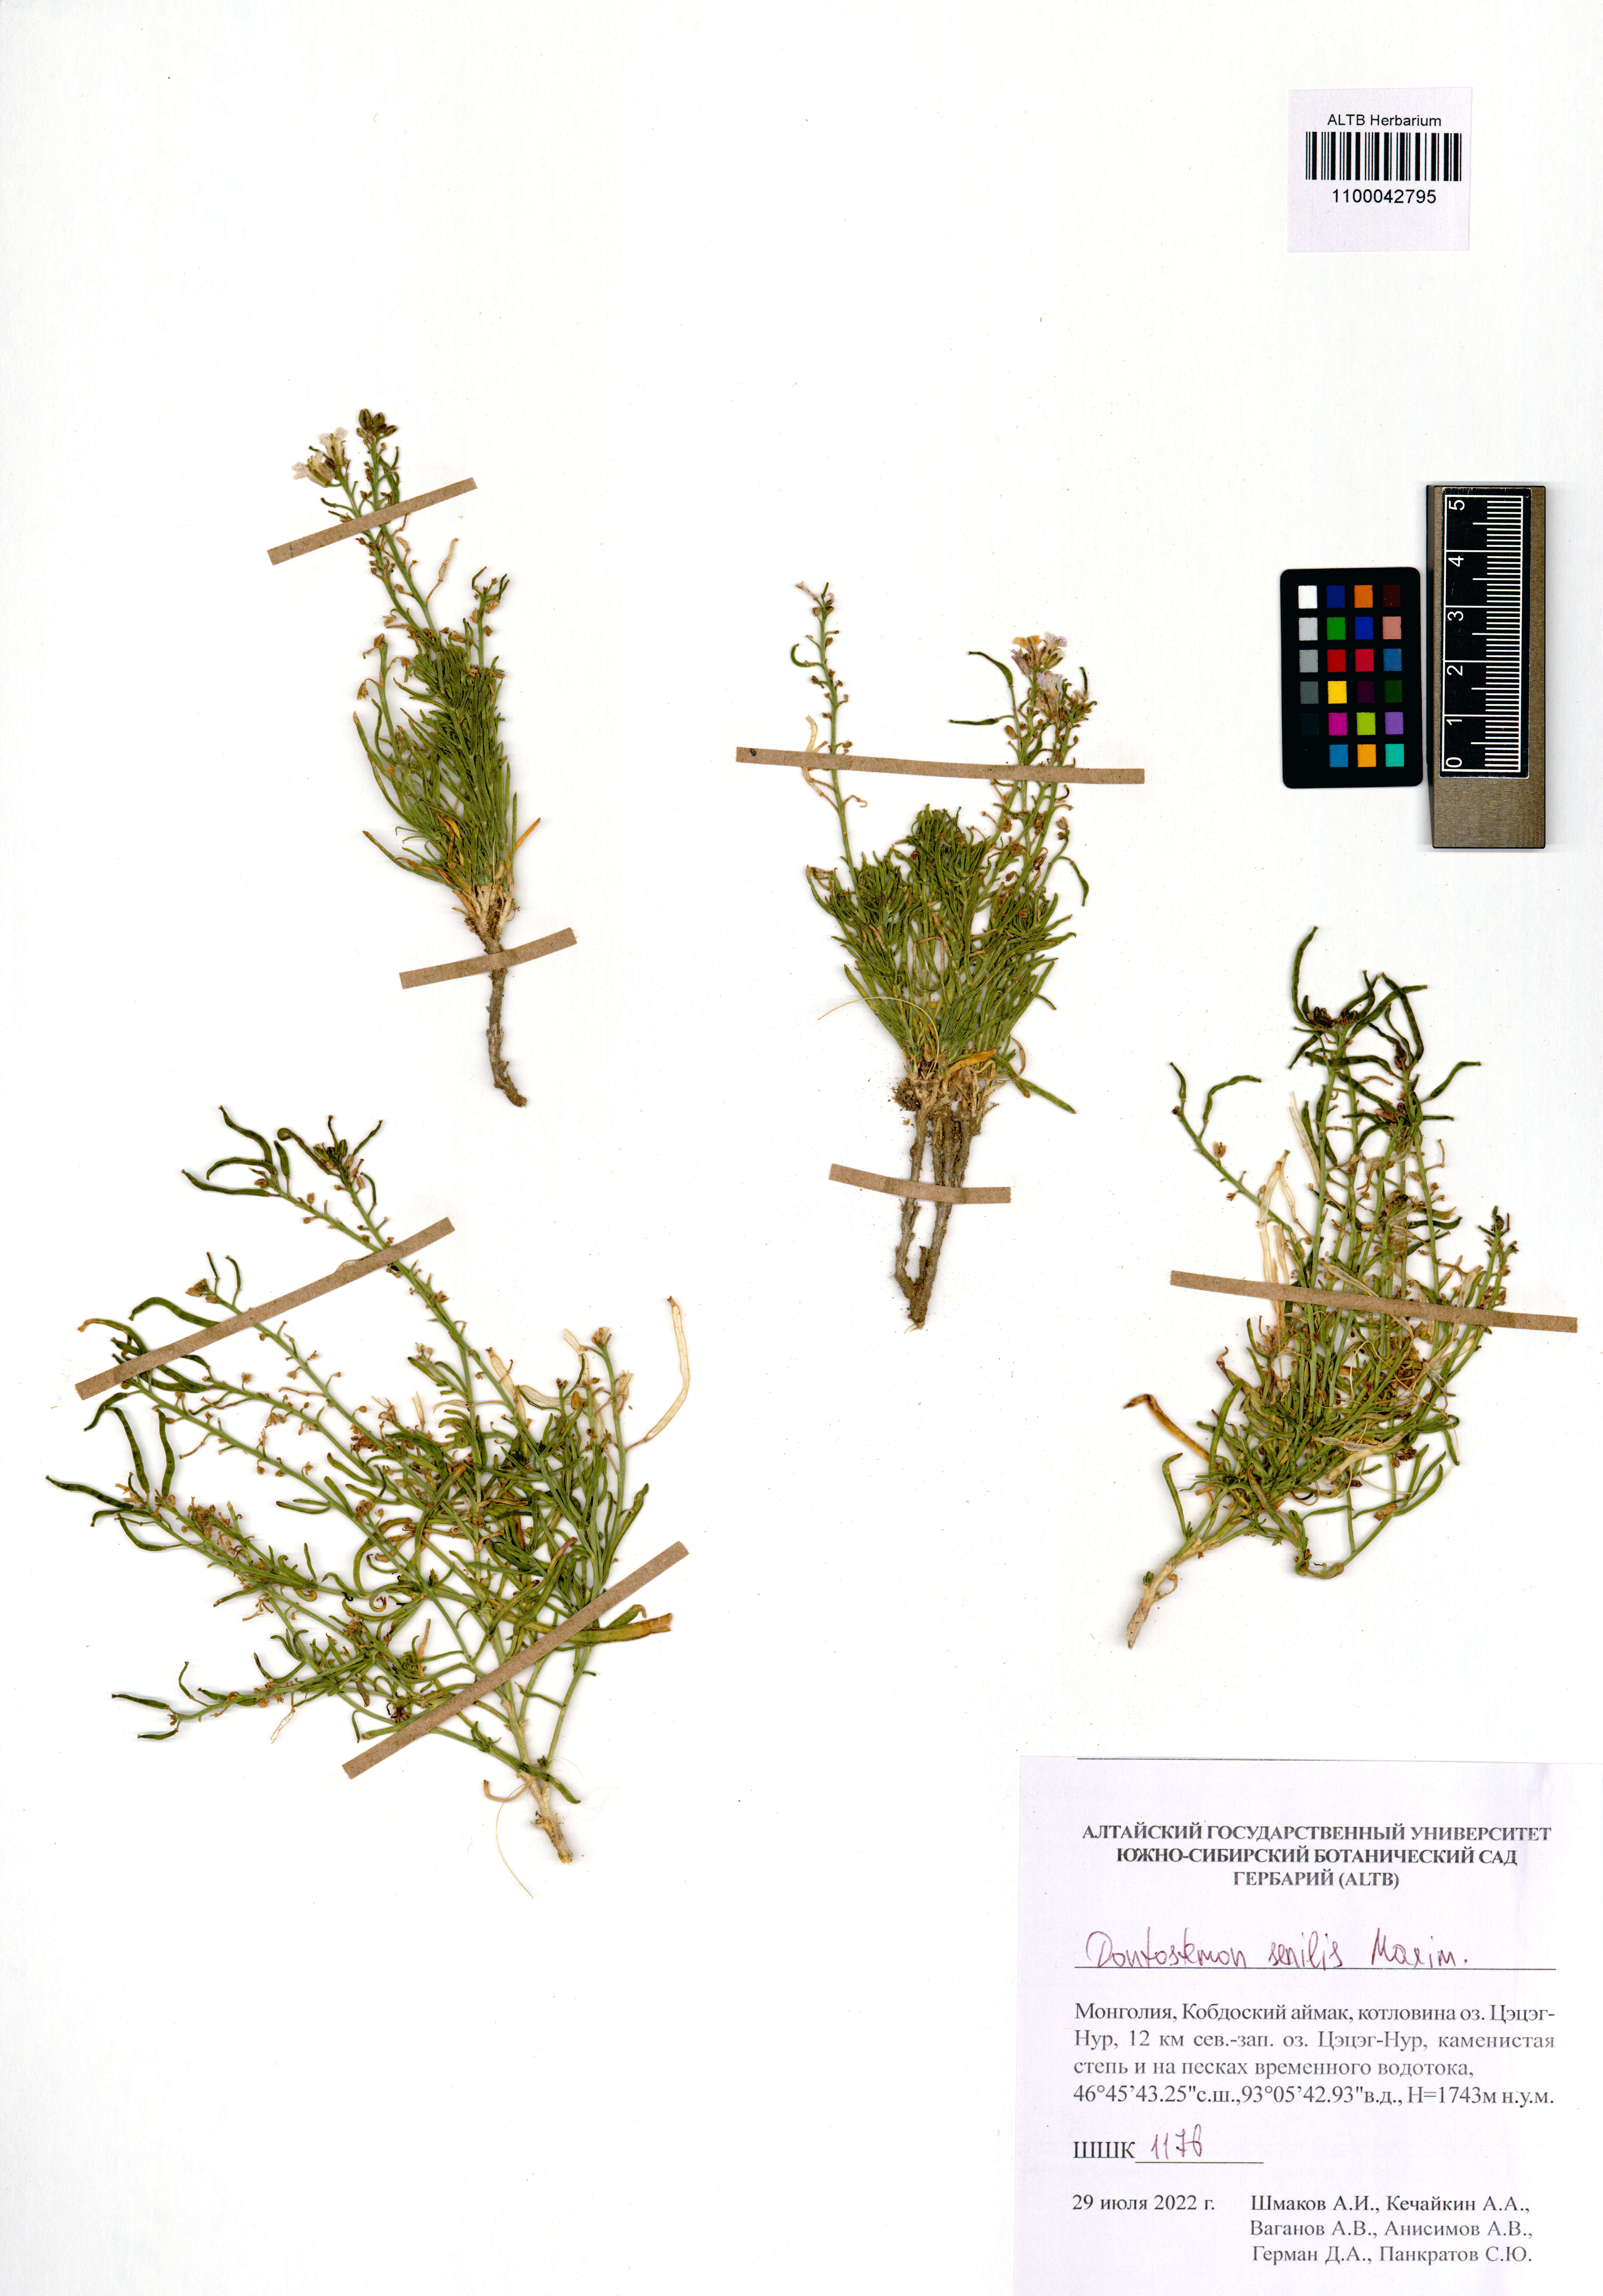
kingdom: Plantae
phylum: Tracheophyta
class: Magnoliopsida
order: Brassicales
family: Brassicaceae
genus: Dontostemon
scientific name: Dontostemon senilis
